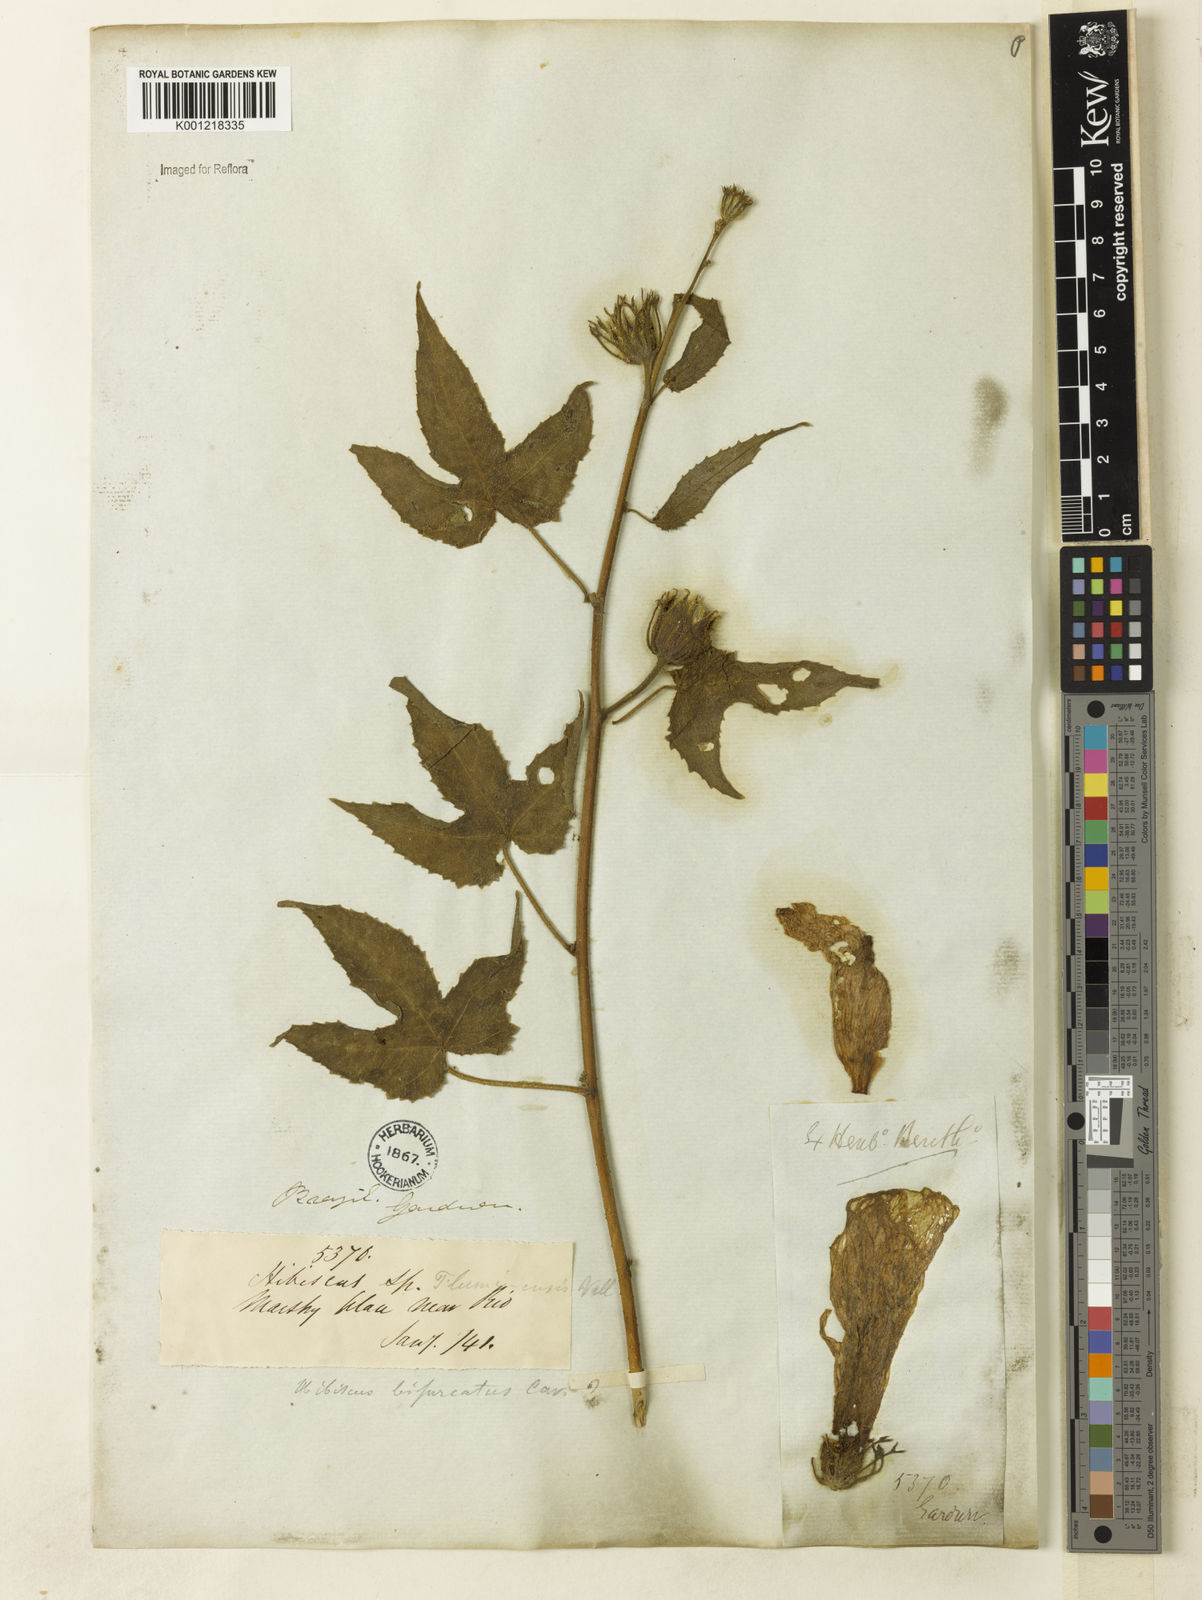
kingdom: Plantae
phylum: Tracheophyta
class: Magnoliopsida
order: Malvales
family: Malvaceae
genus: Hibiscus
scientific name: Hibiscus bifurcatus
